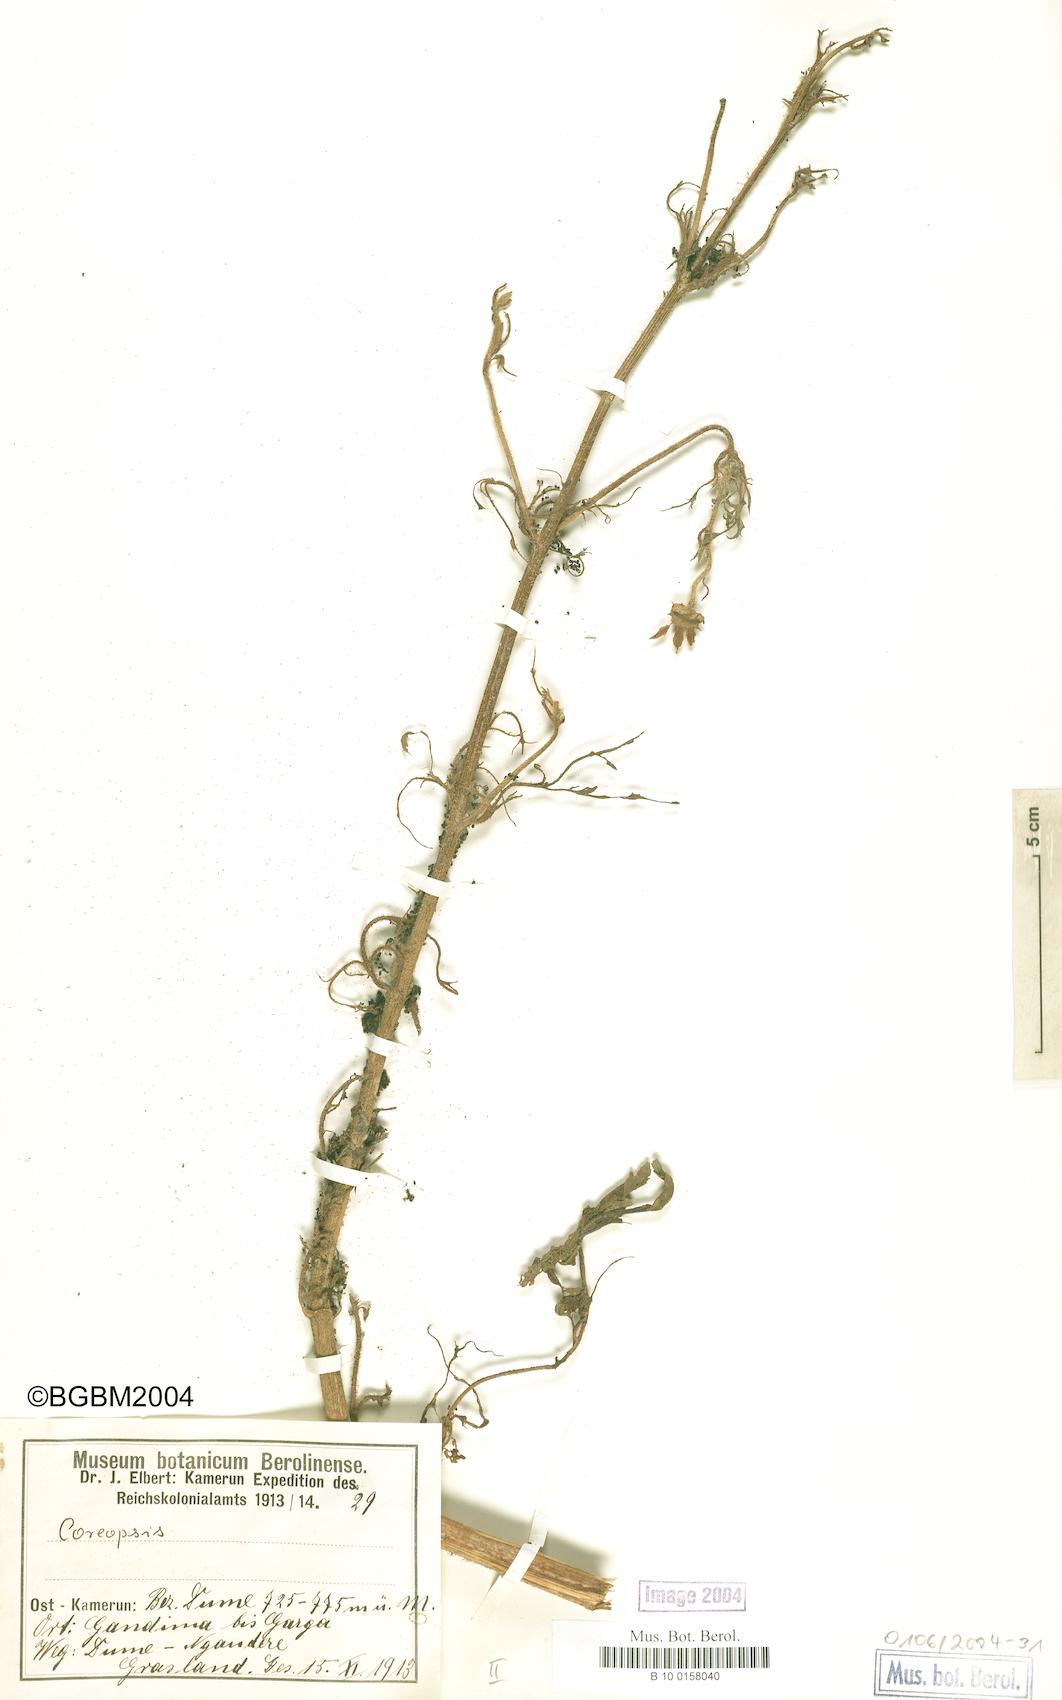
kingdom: Plantae
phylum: Tracheophyta
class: Magnoliopsida
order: Asterales
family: Asteraceae
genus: Coreopsis
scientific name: Coreopsis
